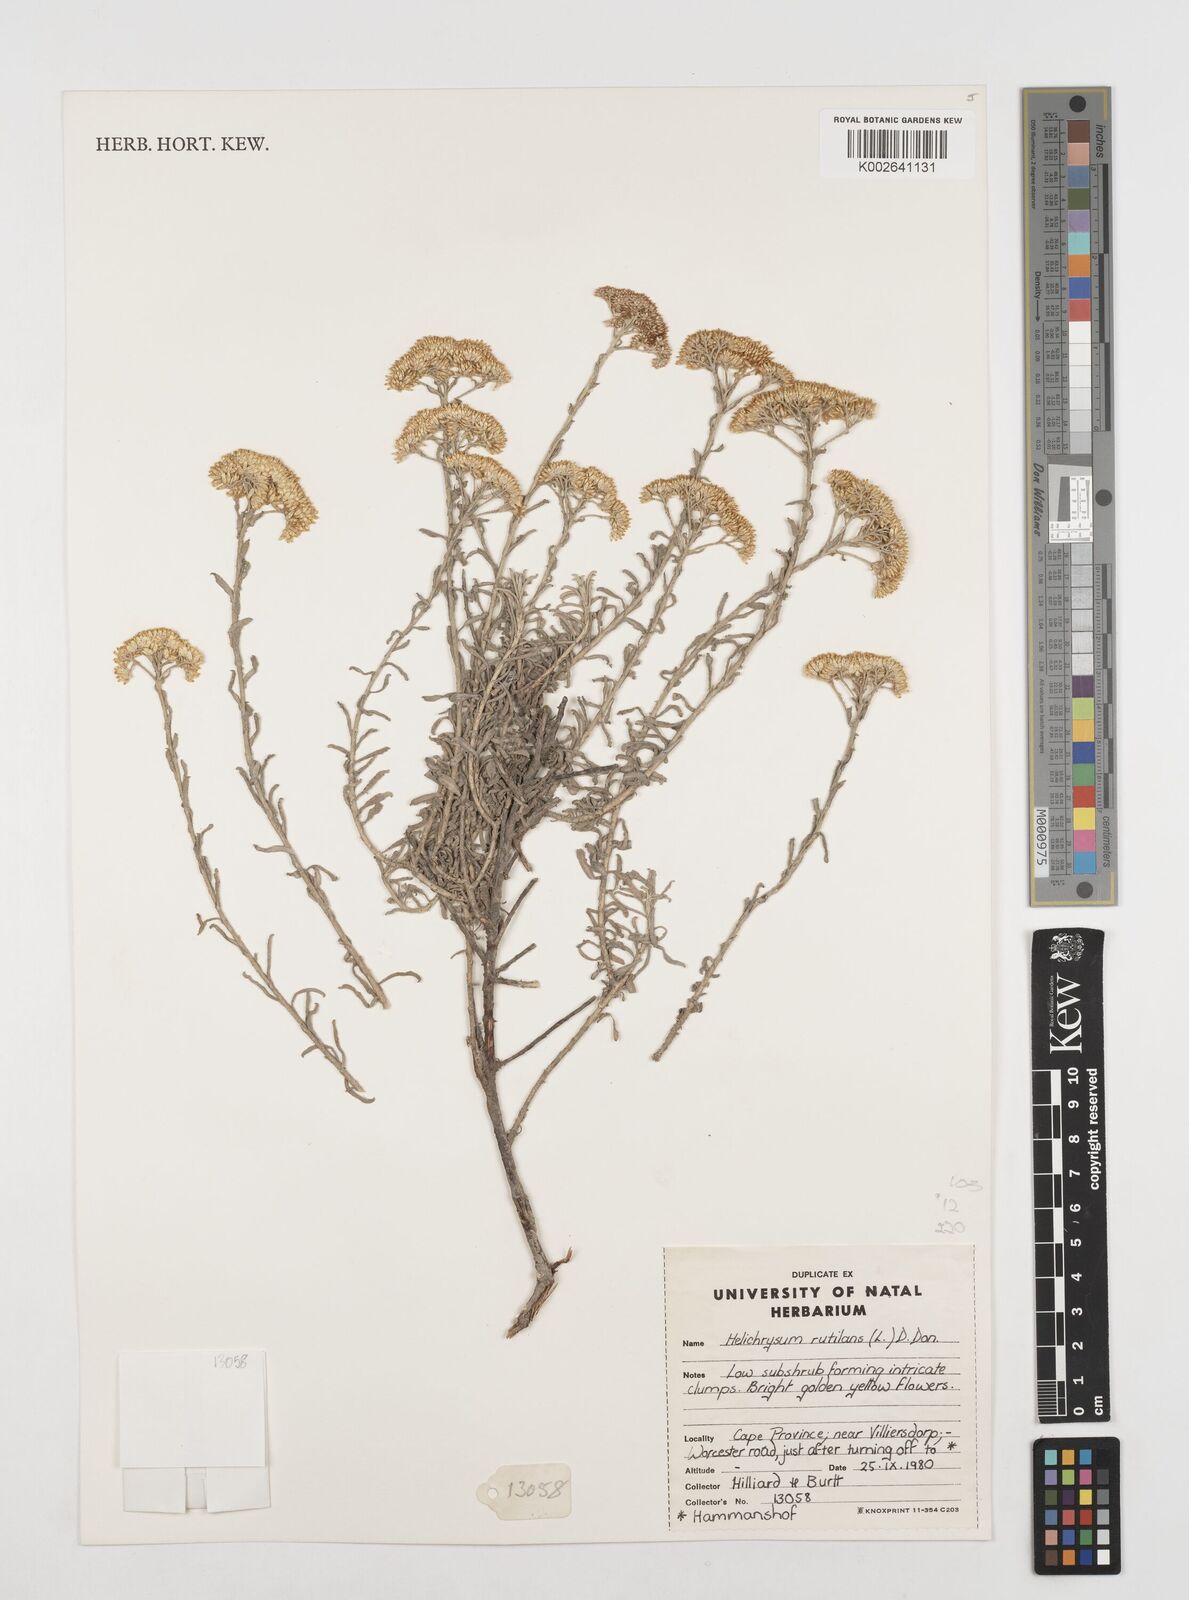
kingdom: Plantae
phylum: Tracheophyta
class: Magnoliopsida
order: Asterales
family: Asteraceae
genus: Helichrysum
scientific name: Helichrysum rutilans
